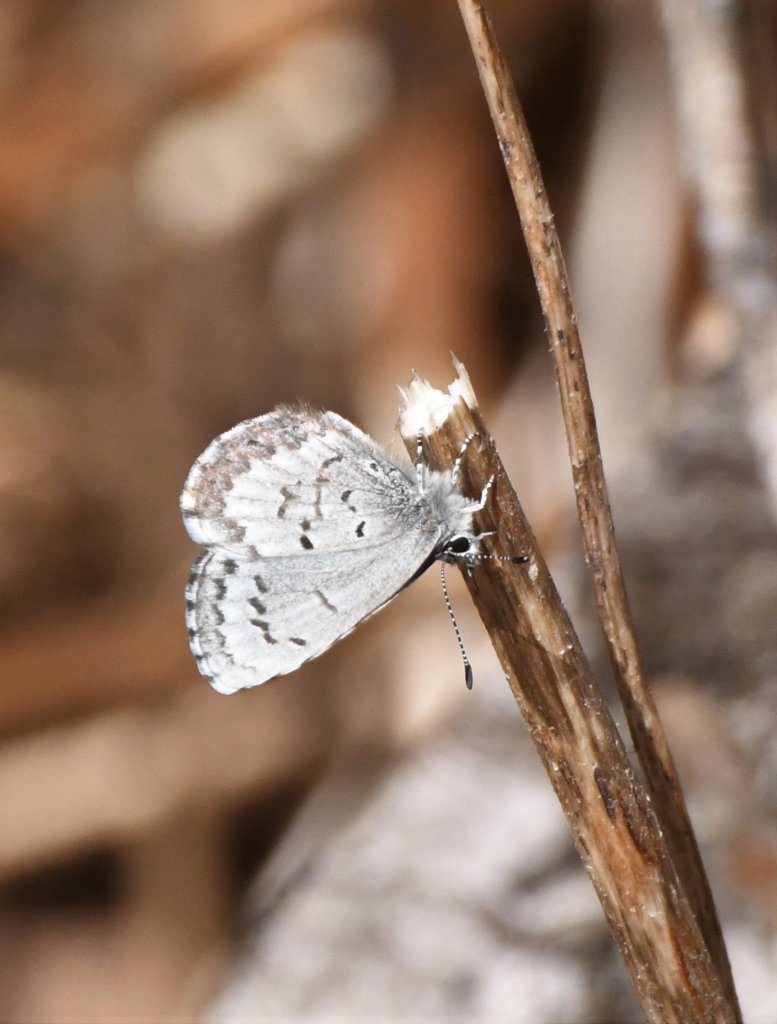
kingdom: Animalia
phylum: Arthropoda
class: Insecta
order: Lepidoptera
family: Lycaenidae
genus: Celastrina
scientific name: Celastrina lucia
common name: Northern Spring Azure
